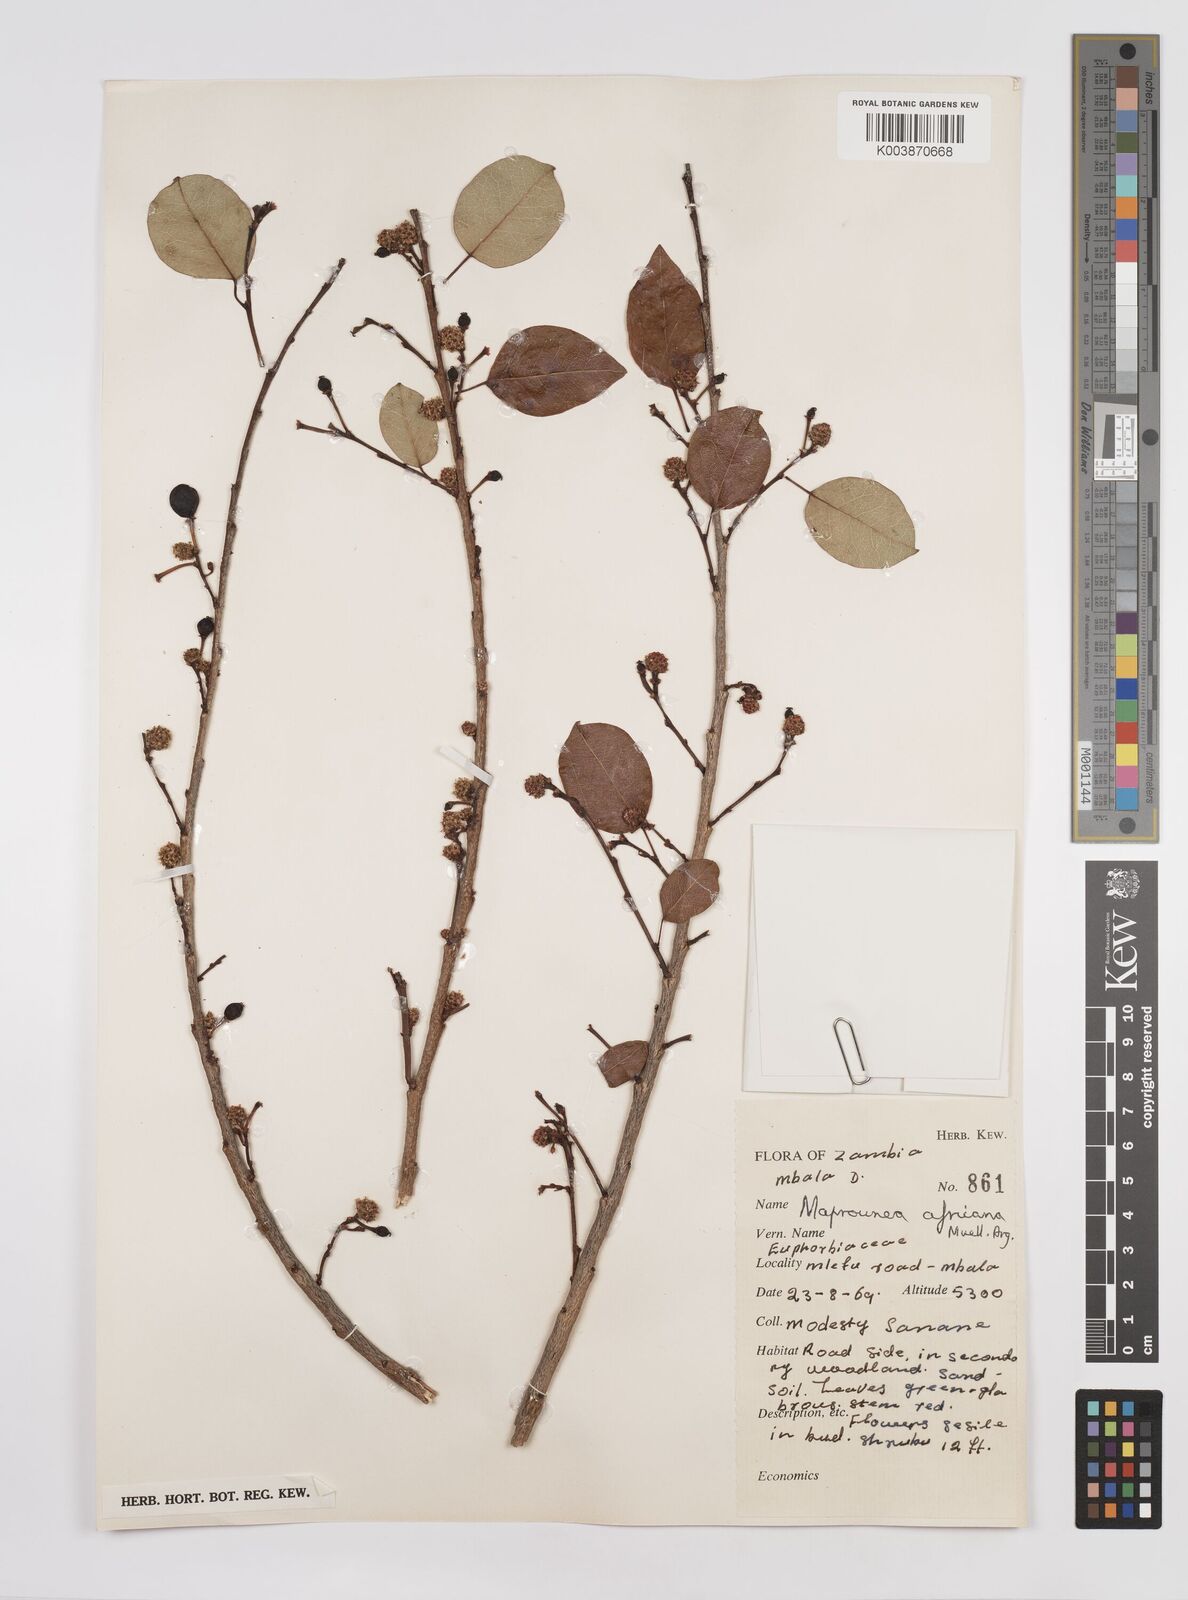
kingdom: Plantae
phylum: Tracheophyta
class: Magnoliopsida
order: Malpighiales
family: Euphorbiaceae
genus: Maprounea
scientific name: Maprounea africana
